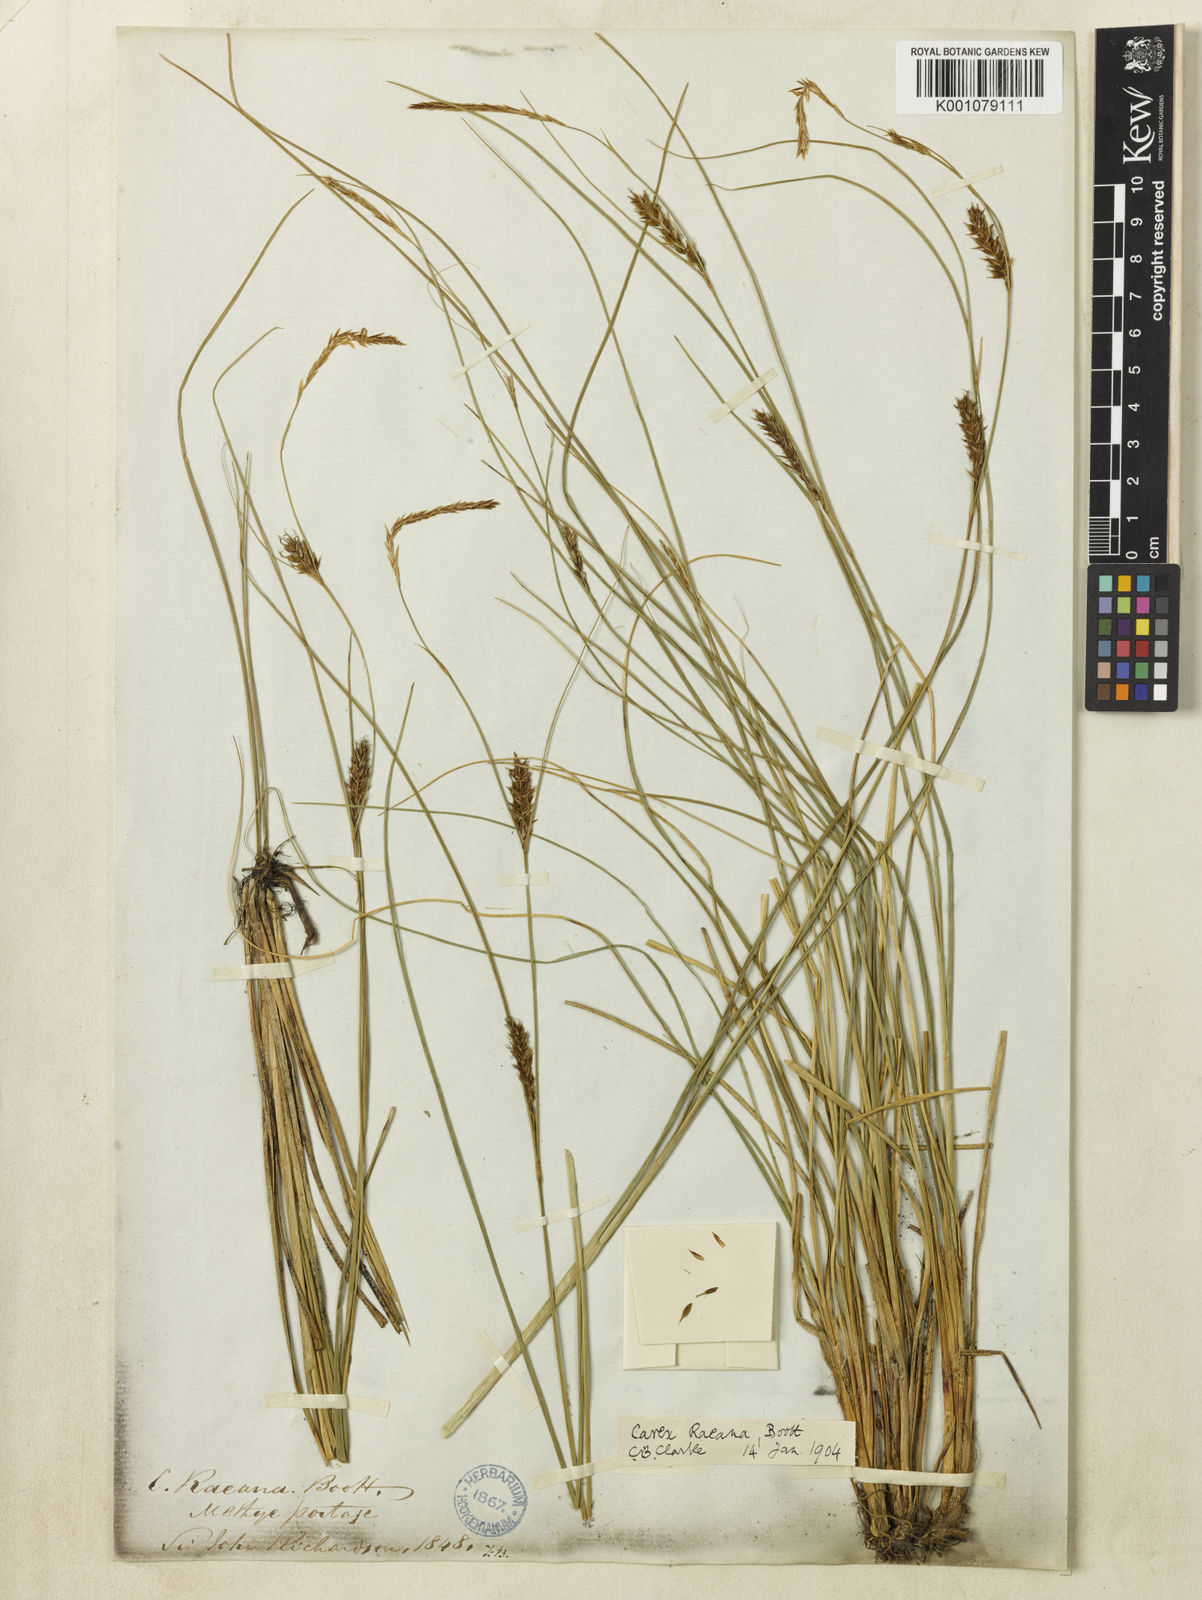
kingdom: Plantae
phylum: Tracheophyta
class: Liliopsida
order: Poales
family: Cyperaceae
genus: Carex
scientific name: Carex vesicaria
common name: Bladder-sedge
